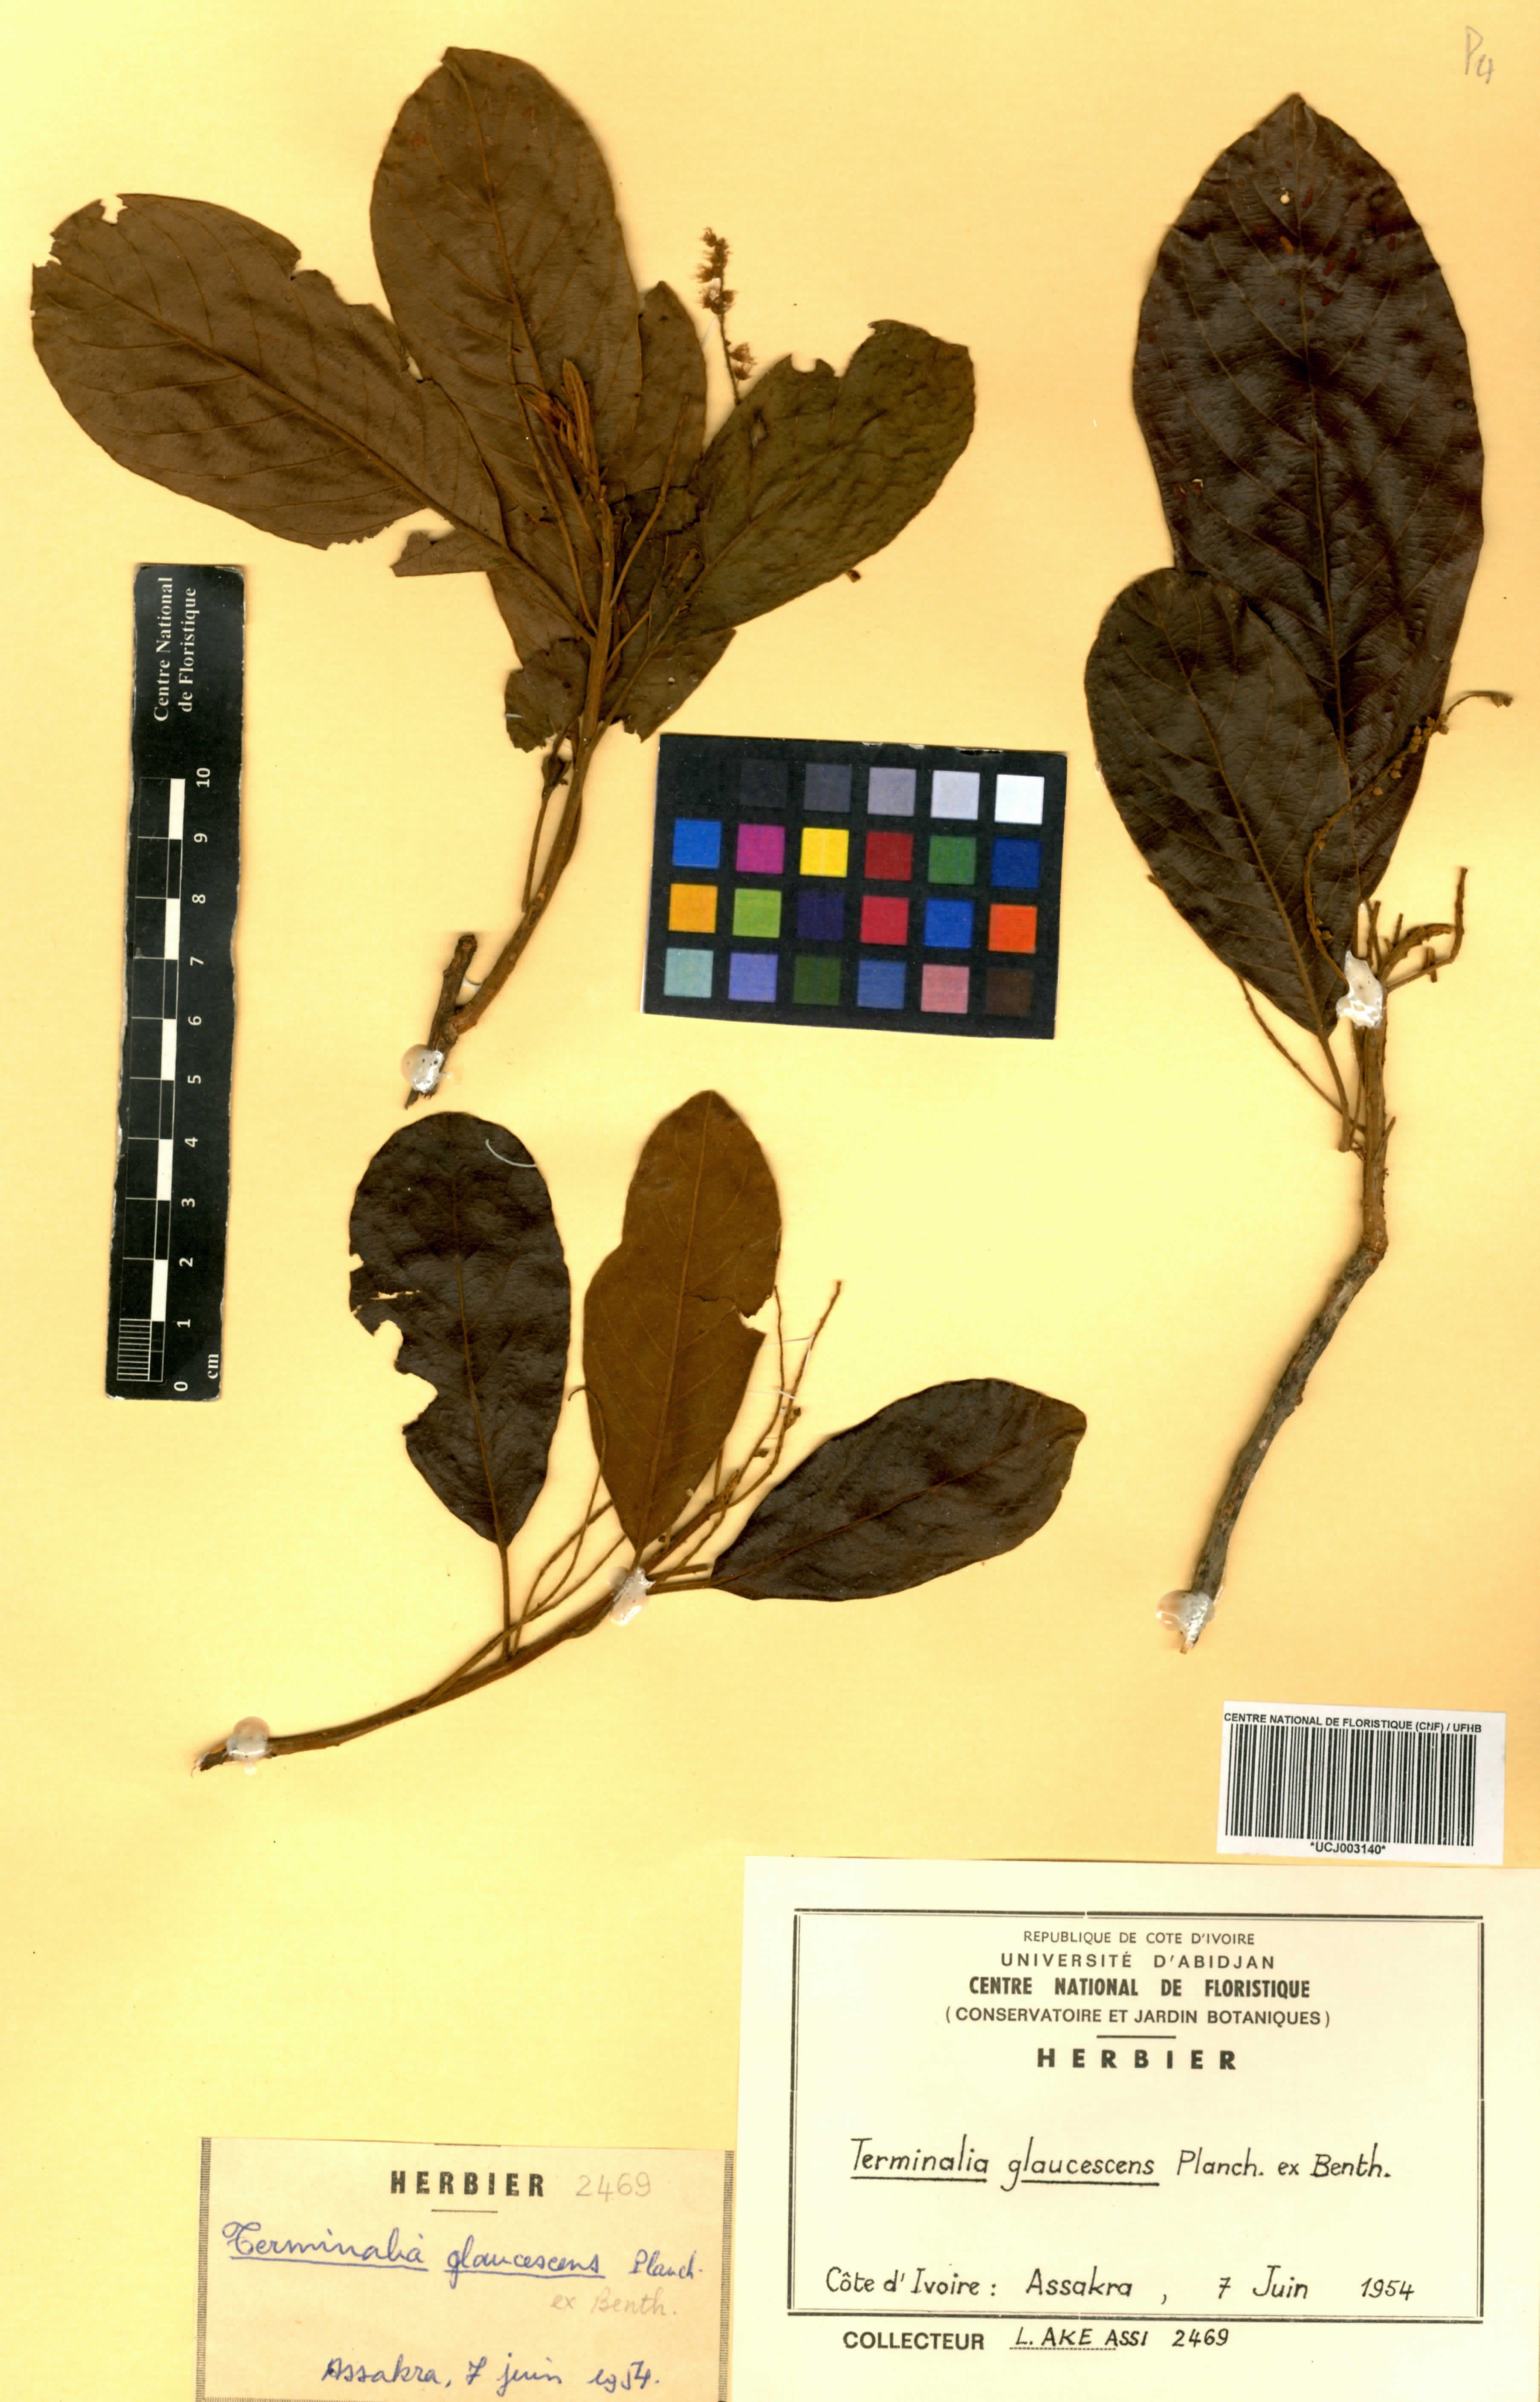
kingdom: Plantae
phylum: Tracheophyta
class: Magnoliopsida
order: Myrtales
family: Combretaceae
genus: Terminalia
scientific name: Terminalia schimperiana
